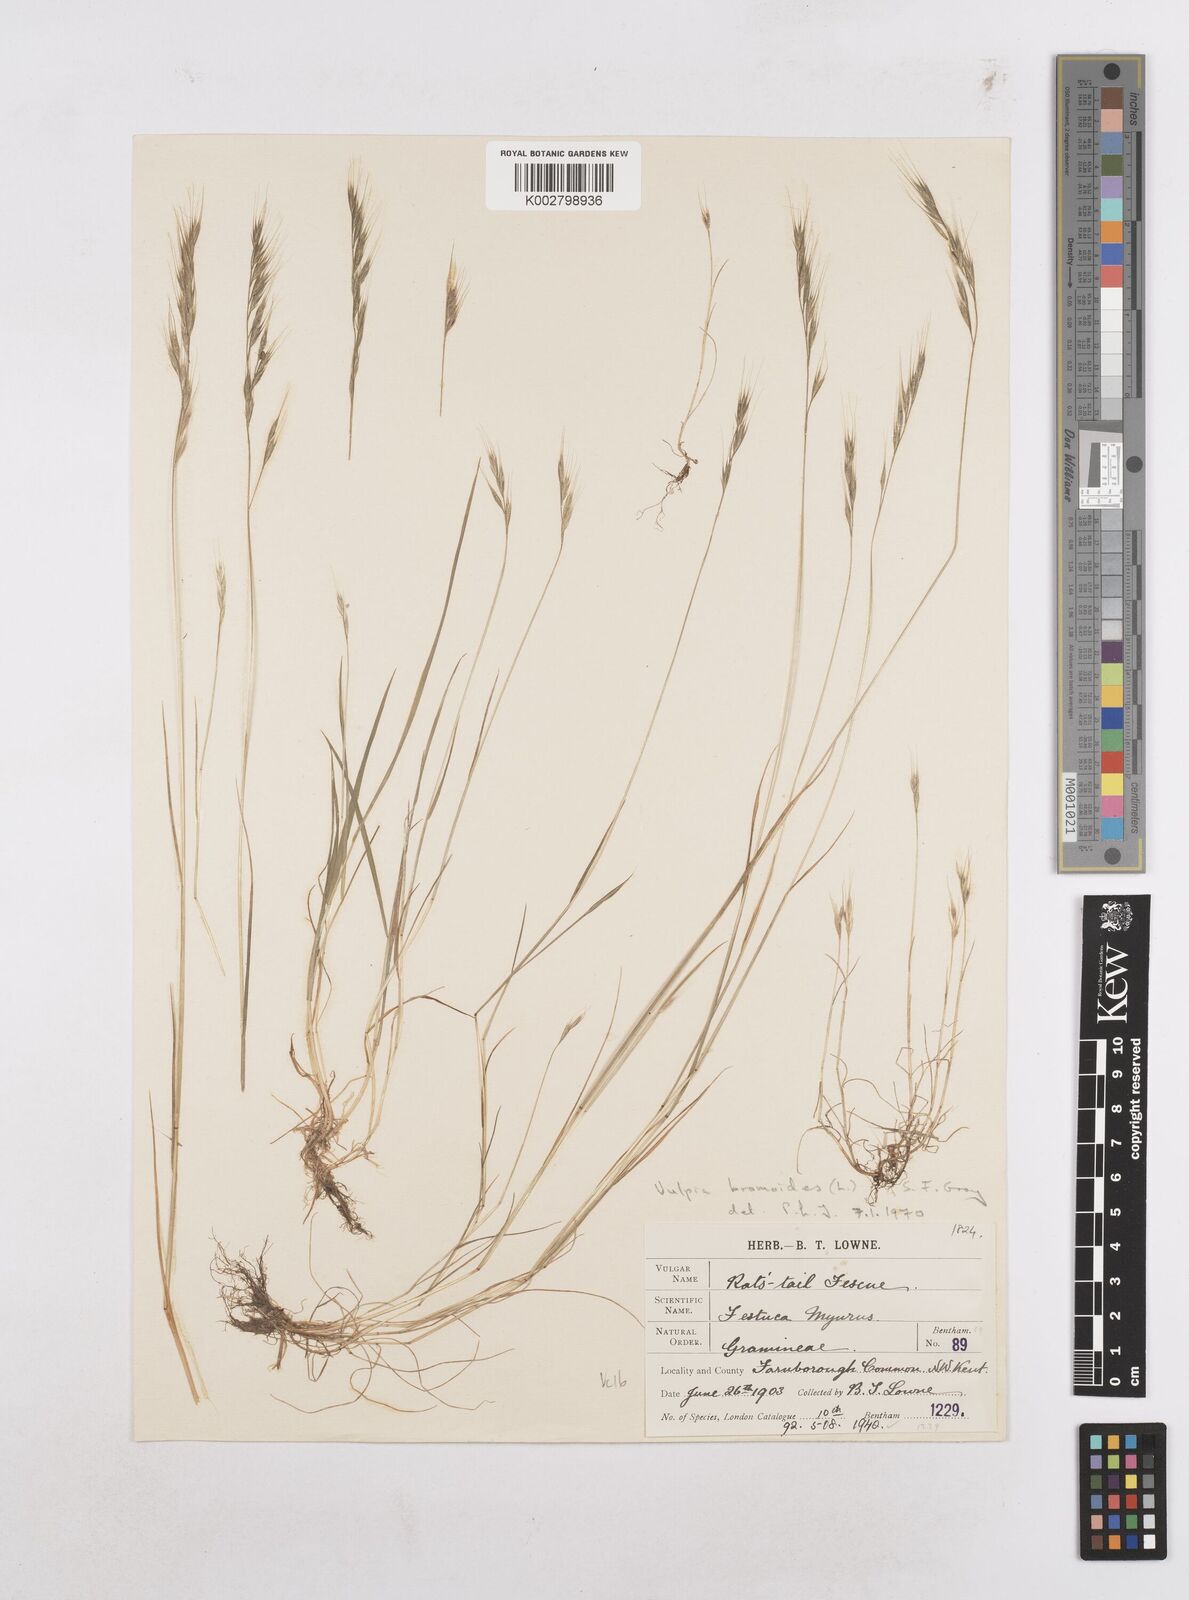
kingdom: Plantae
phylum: Tracheophyta
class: Liliopsida
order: Poales
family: Poaceae
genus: Festuca
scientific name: Festuca bromoides
